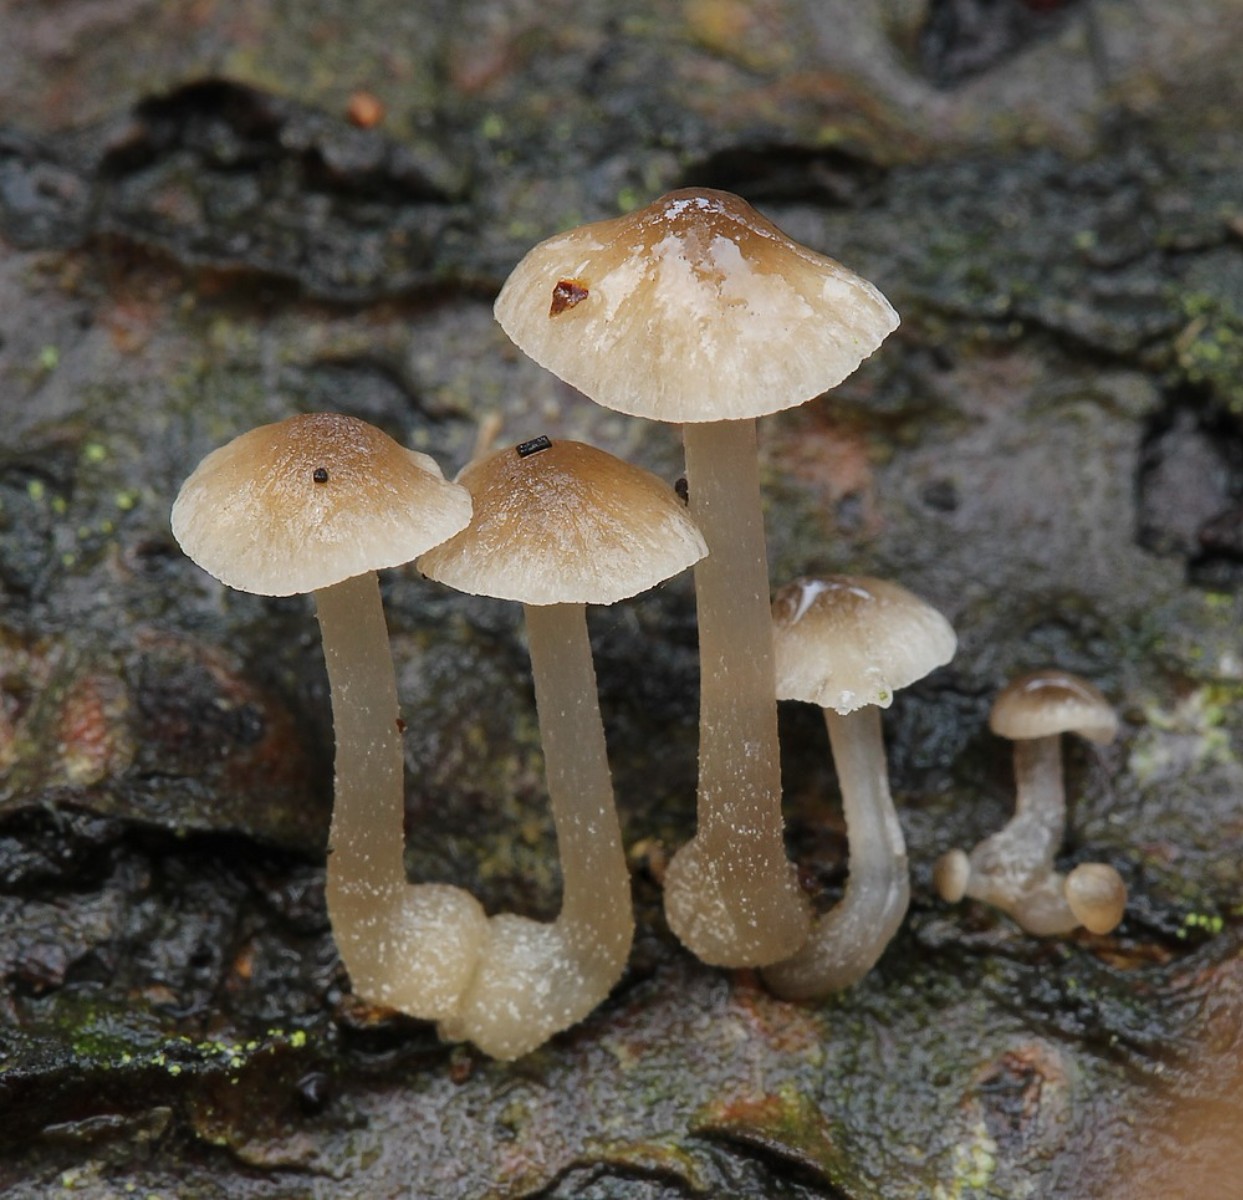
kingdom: Fungi
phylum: Basidiomycota
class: Agaricomycetes
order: Agaricales
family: Mycenaceae
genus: Mycena
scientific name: Mycena
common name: huesvamp
